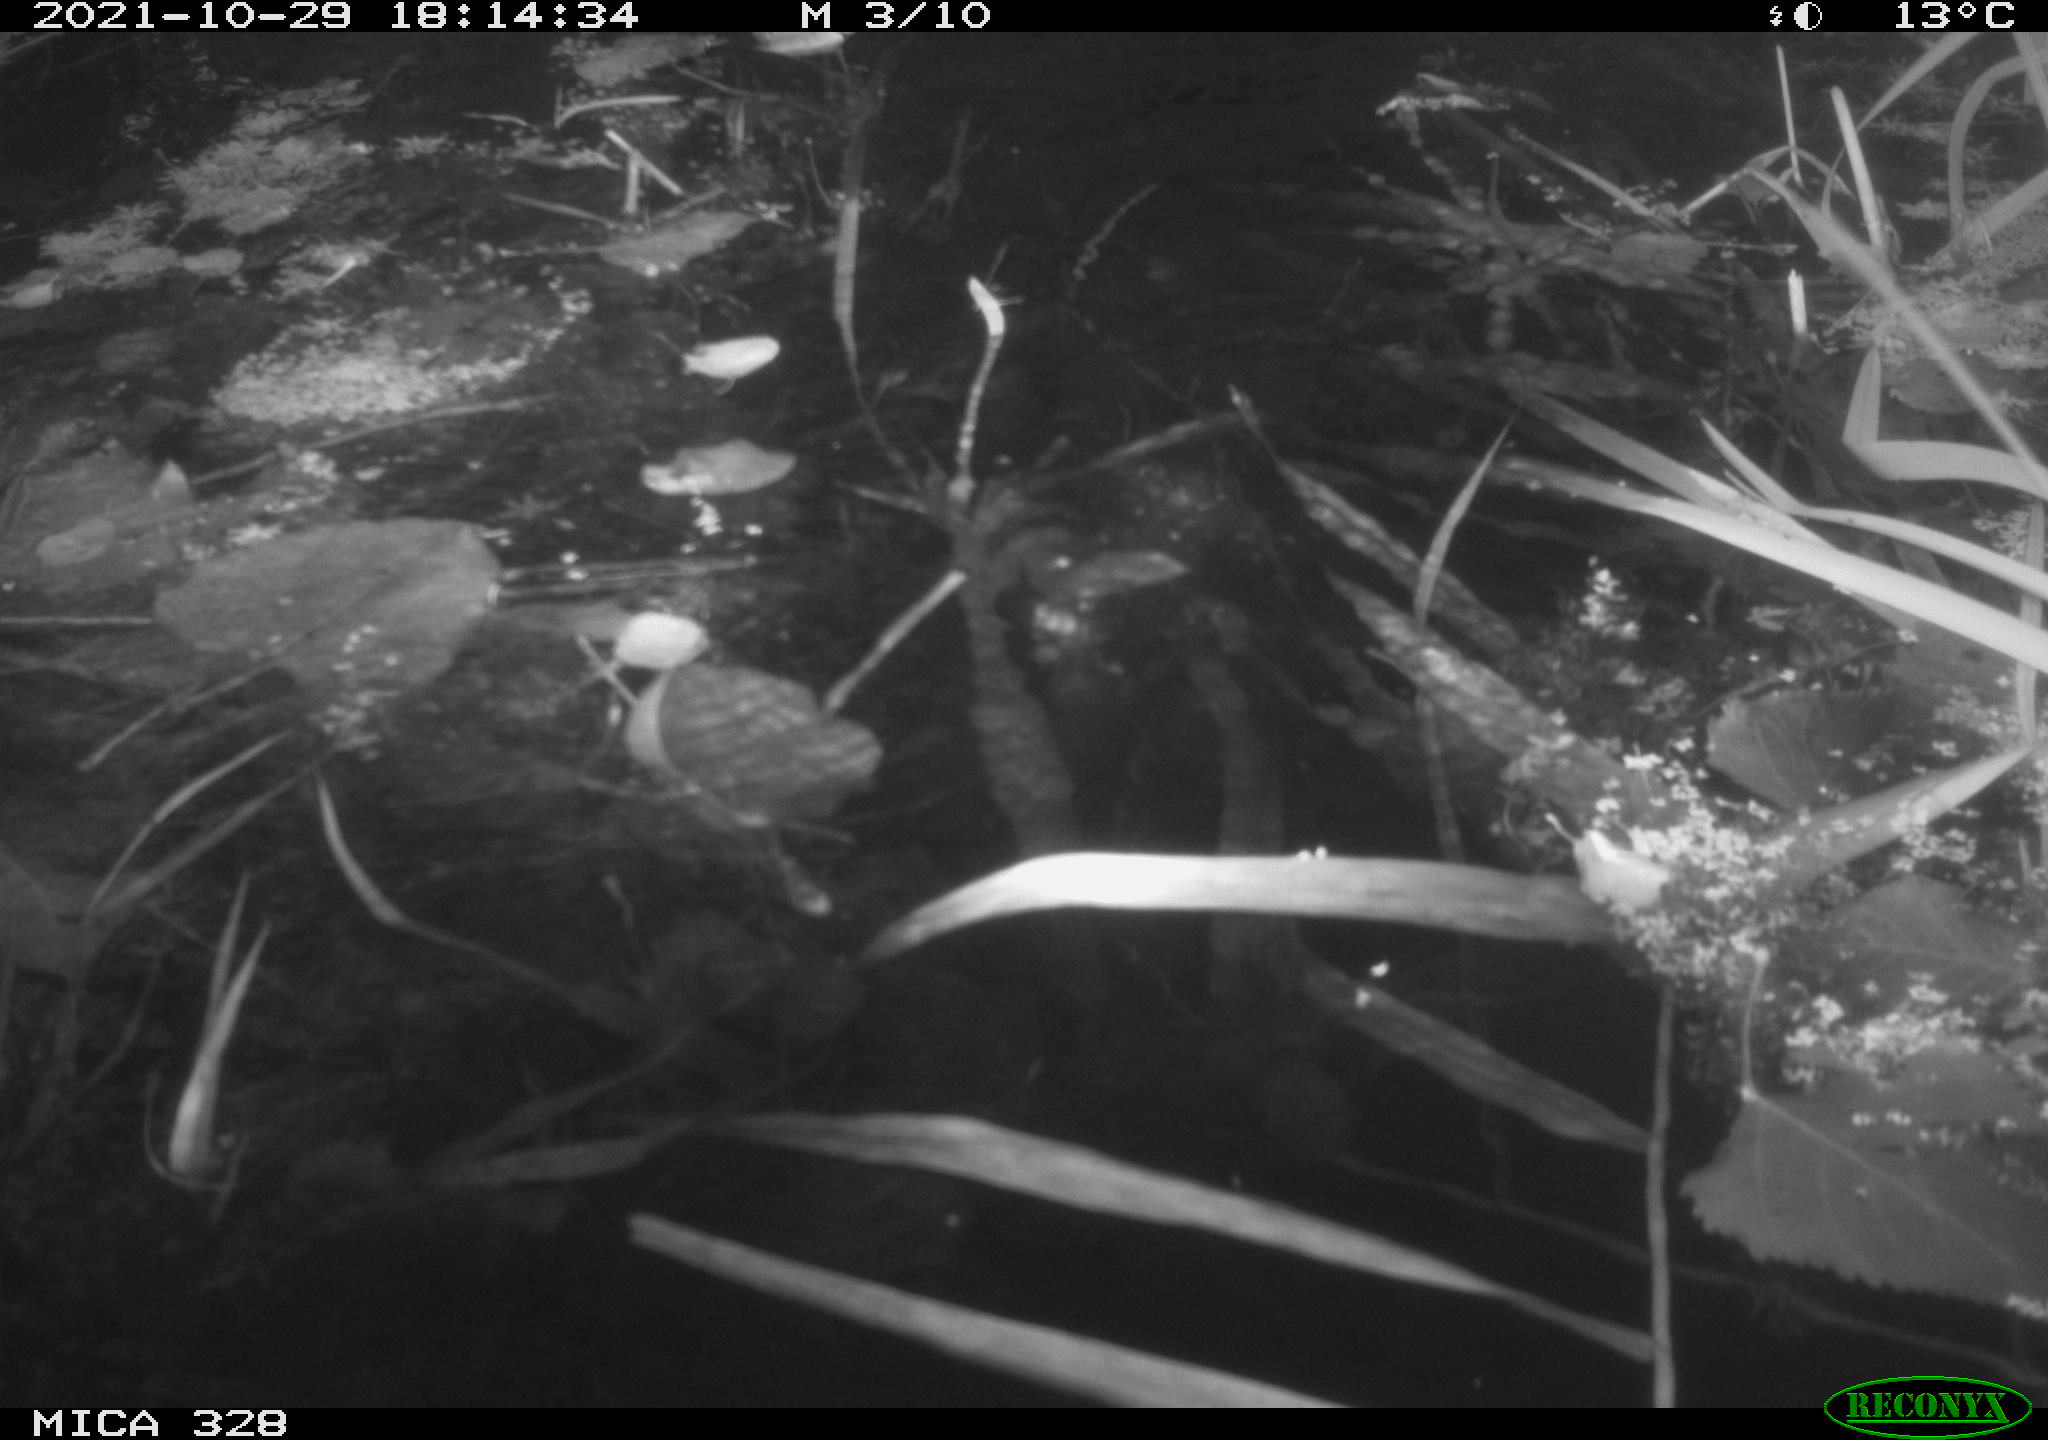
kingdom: Animalia
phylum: Chordata
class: Mammalia
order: Rodentia
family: Cricetidae
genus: Ondatra
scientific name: Ondatra zibethicus
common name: Muskrat
